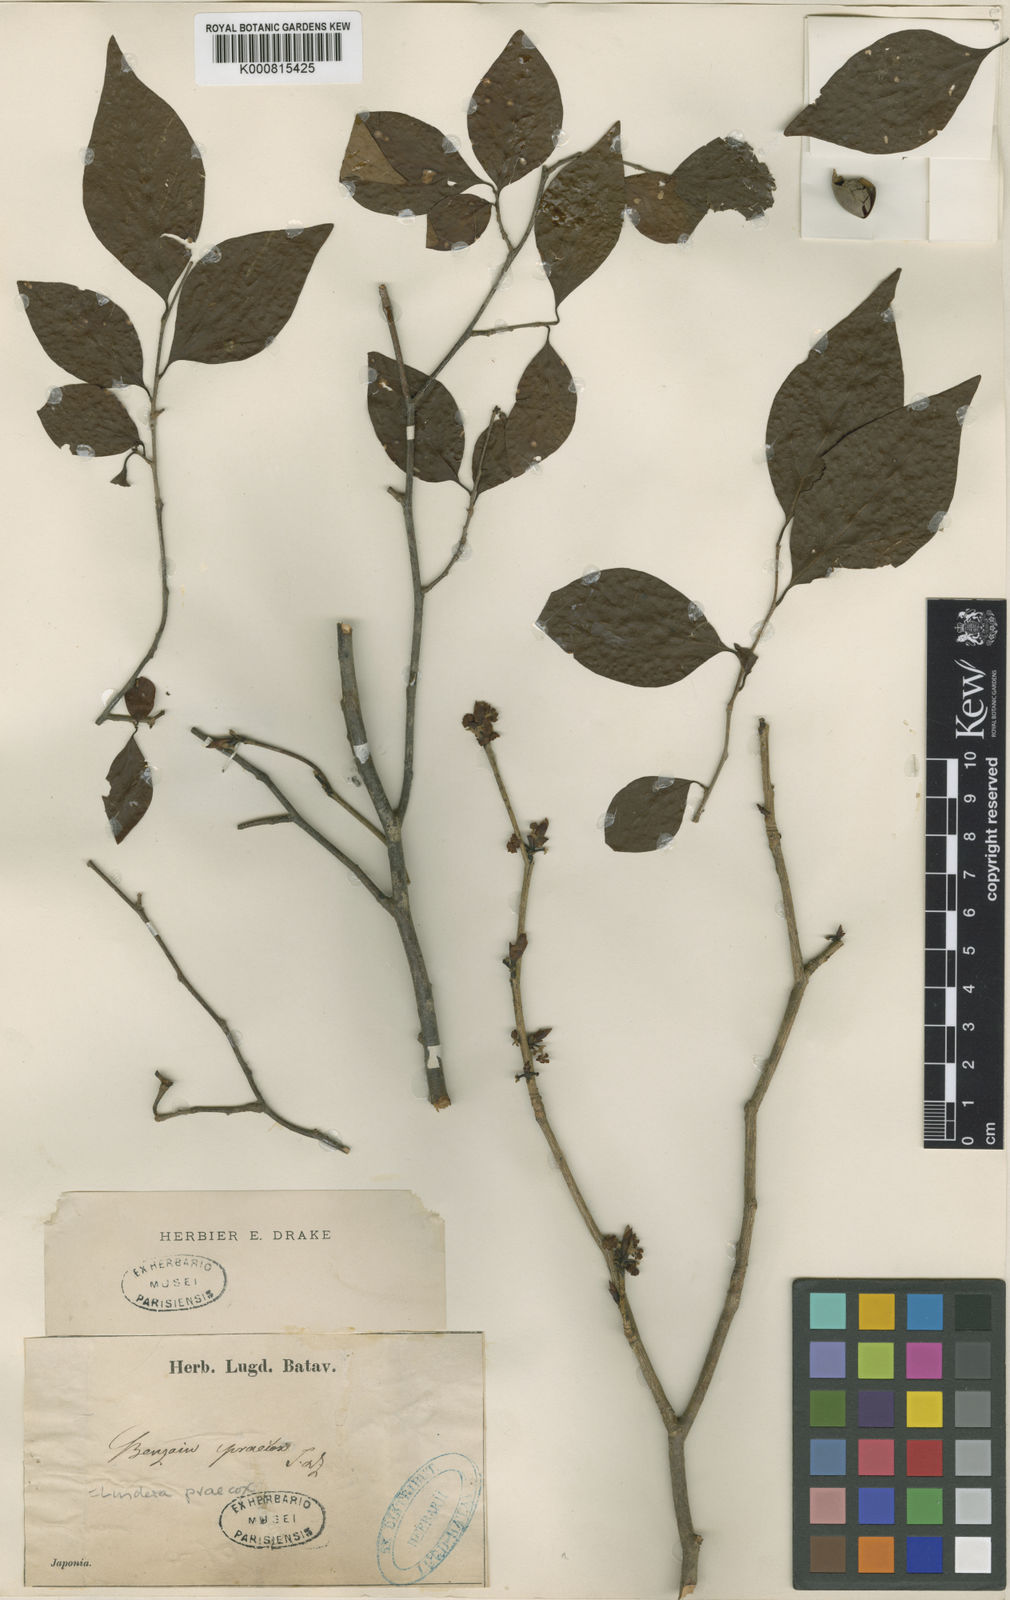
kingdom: Plantae
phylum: Tracheophyta
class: Magnoliopsida
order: Laurales
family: Lauraceae
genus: Lindera
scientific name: Lindera praecox
